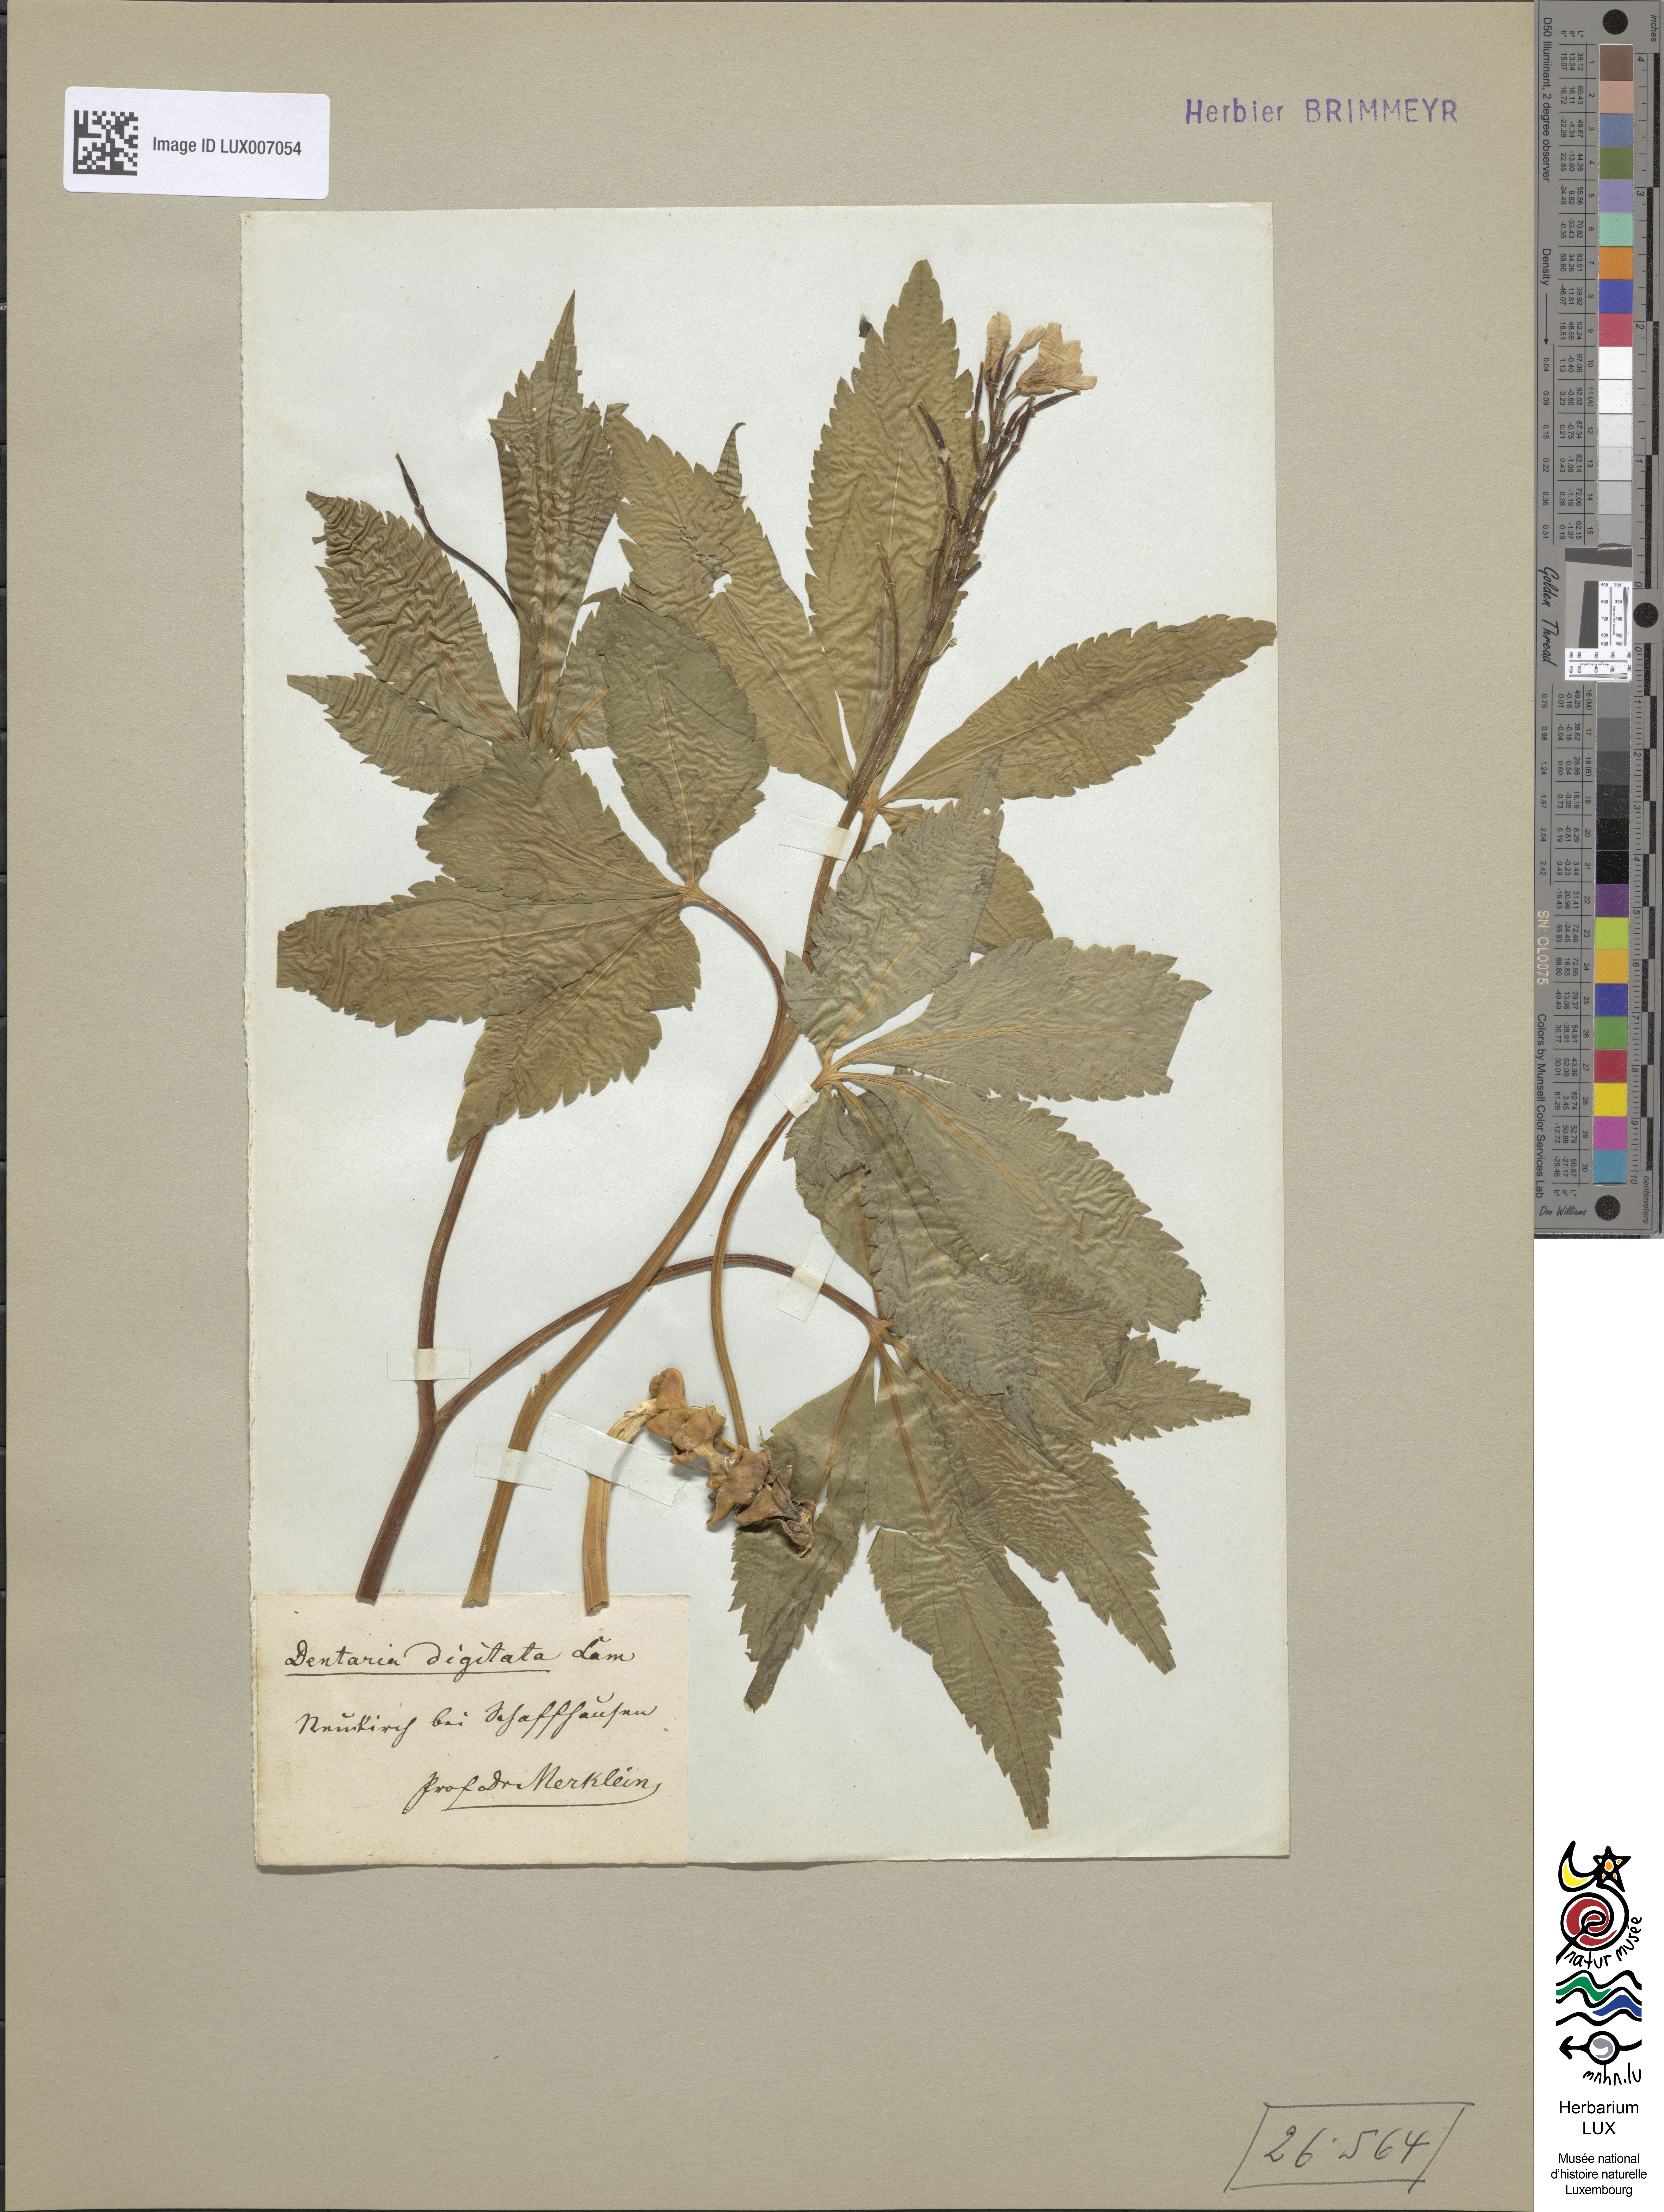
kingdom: Plantae
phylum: Tracheophyta
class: Magnoliopsida
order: Brassicales
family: Brassicaceae
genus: Cardamine
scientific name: Cardamine pentaphyllos
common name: Five-leaflet bitter-cress
